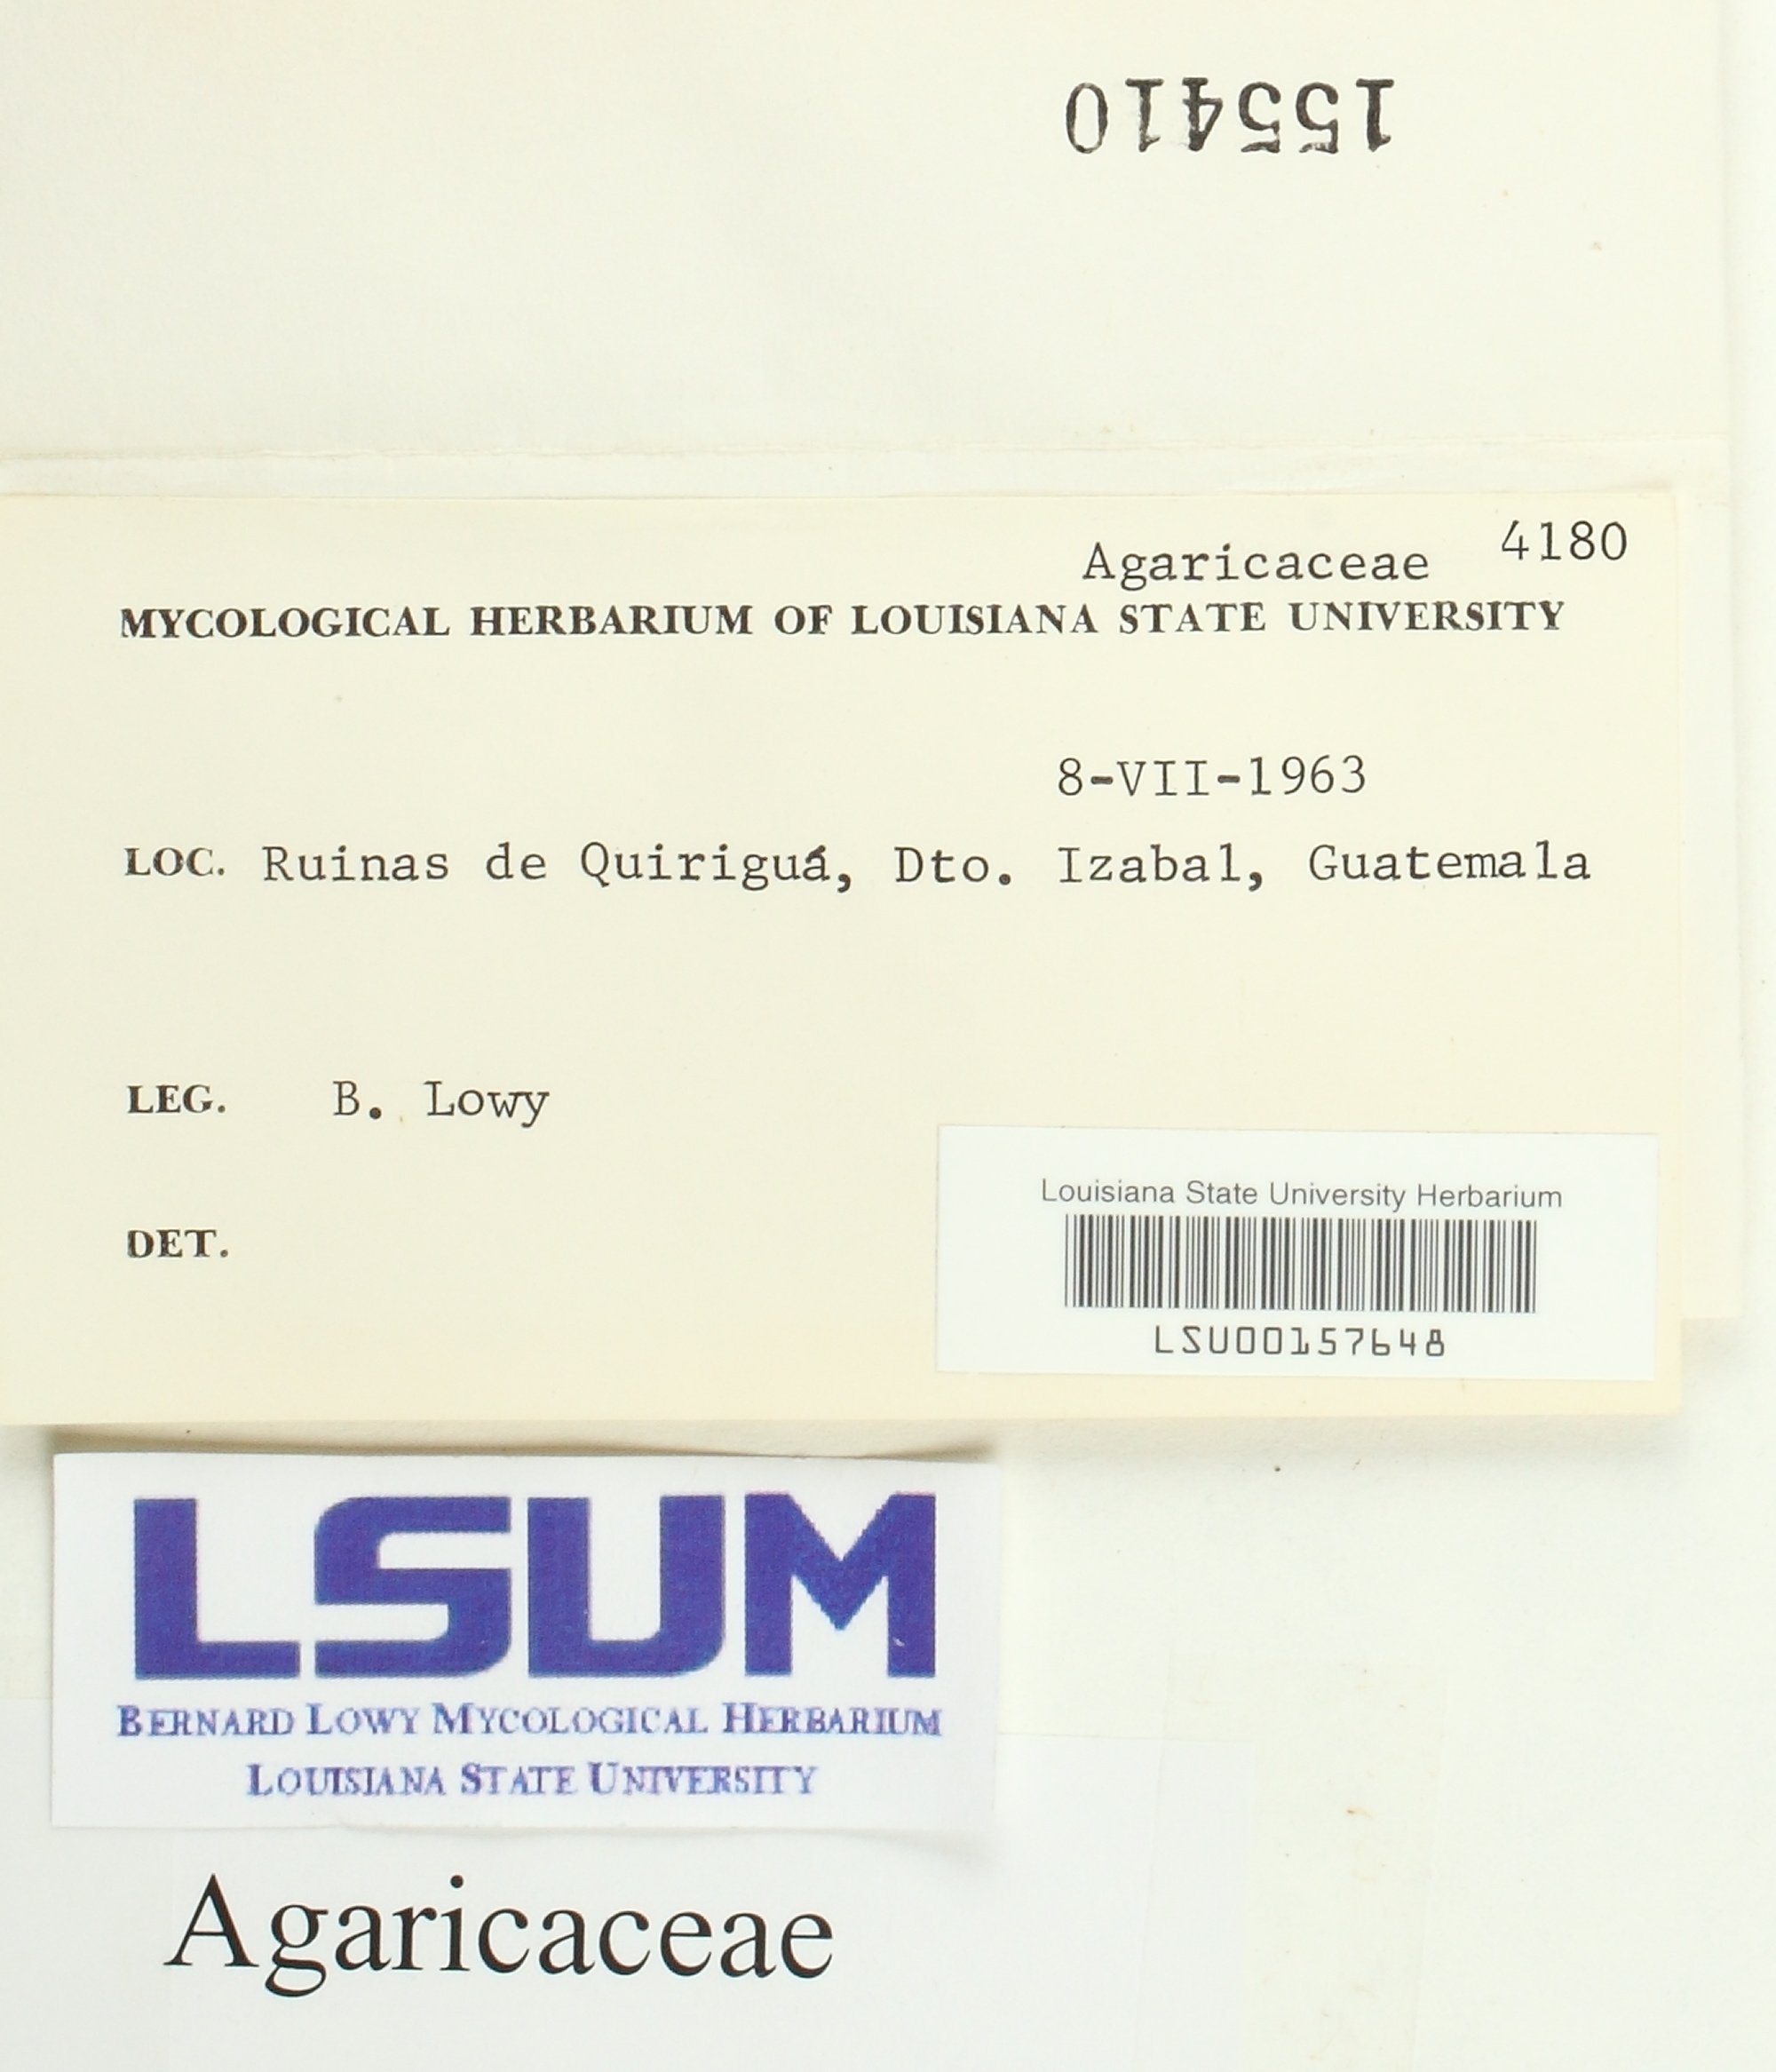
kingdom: Fungi
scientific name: Fungi
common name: Fungi
